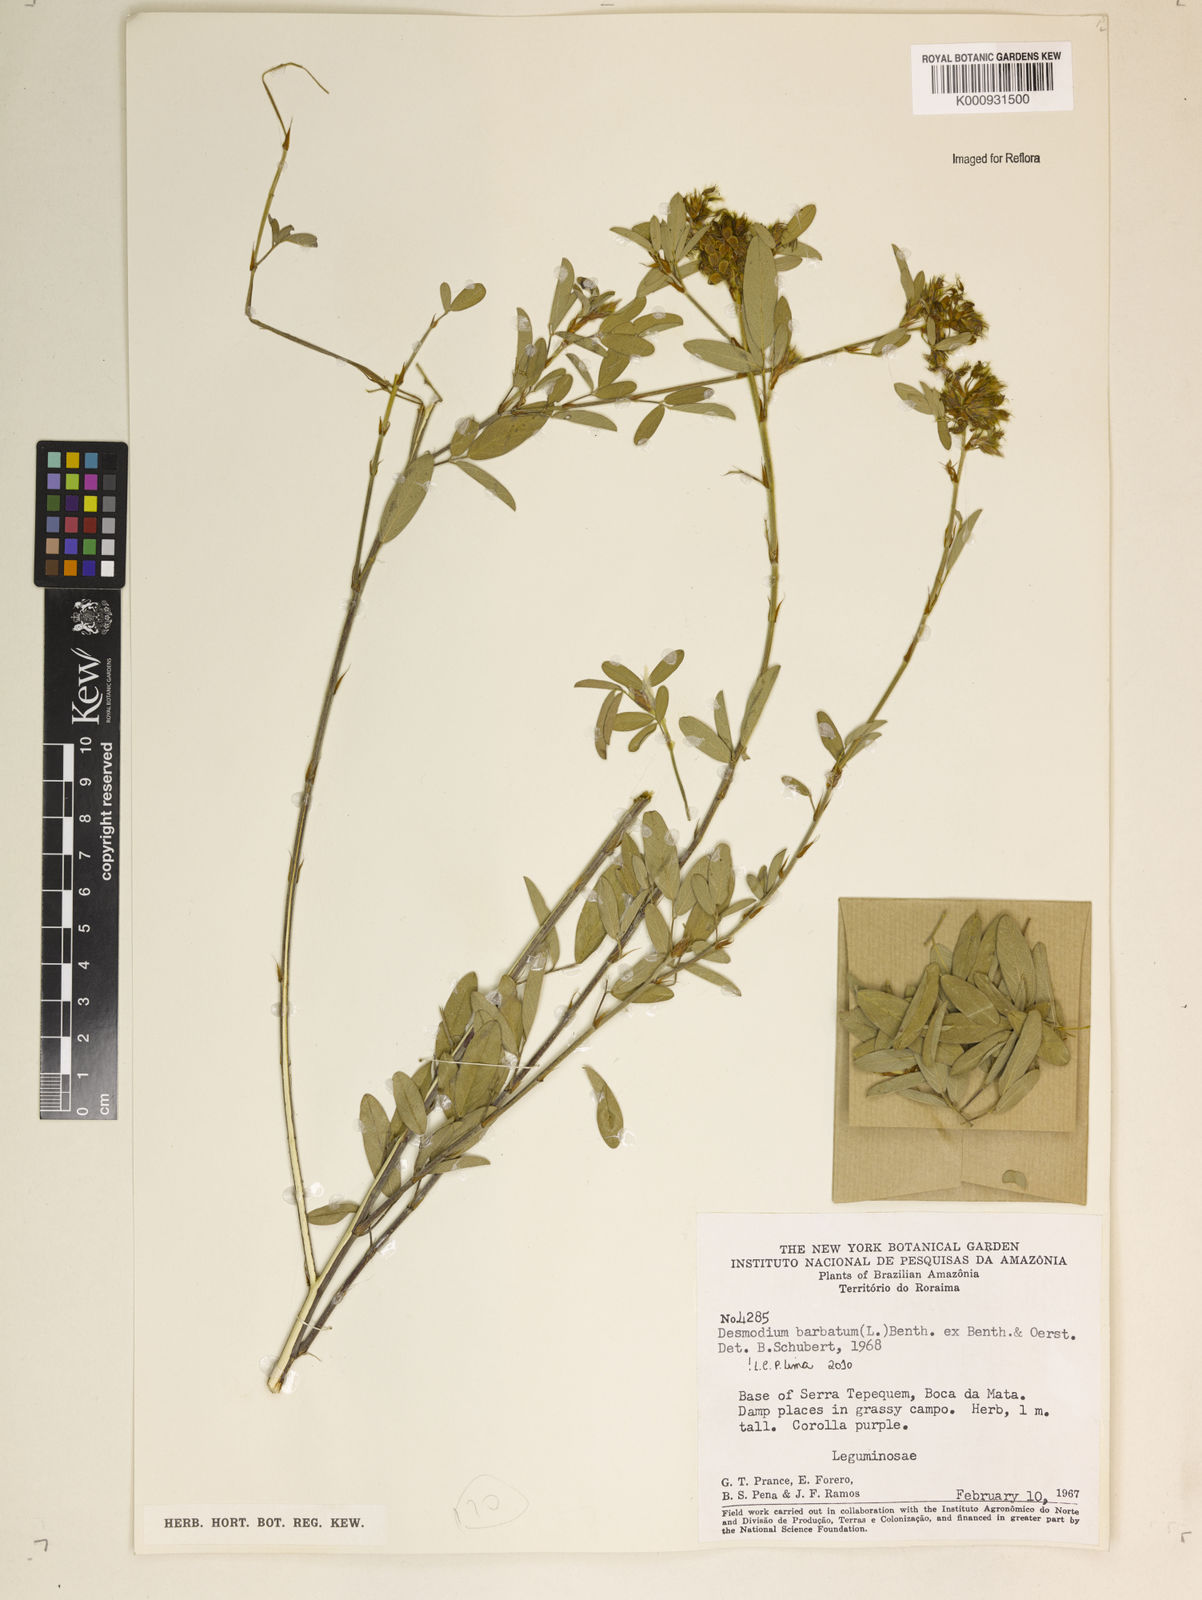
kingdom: Plantae
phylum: Tracheophyta
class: Magnoliopsida
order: Fabales
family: Fabaceae
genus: Grona
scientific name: Grona barbata
